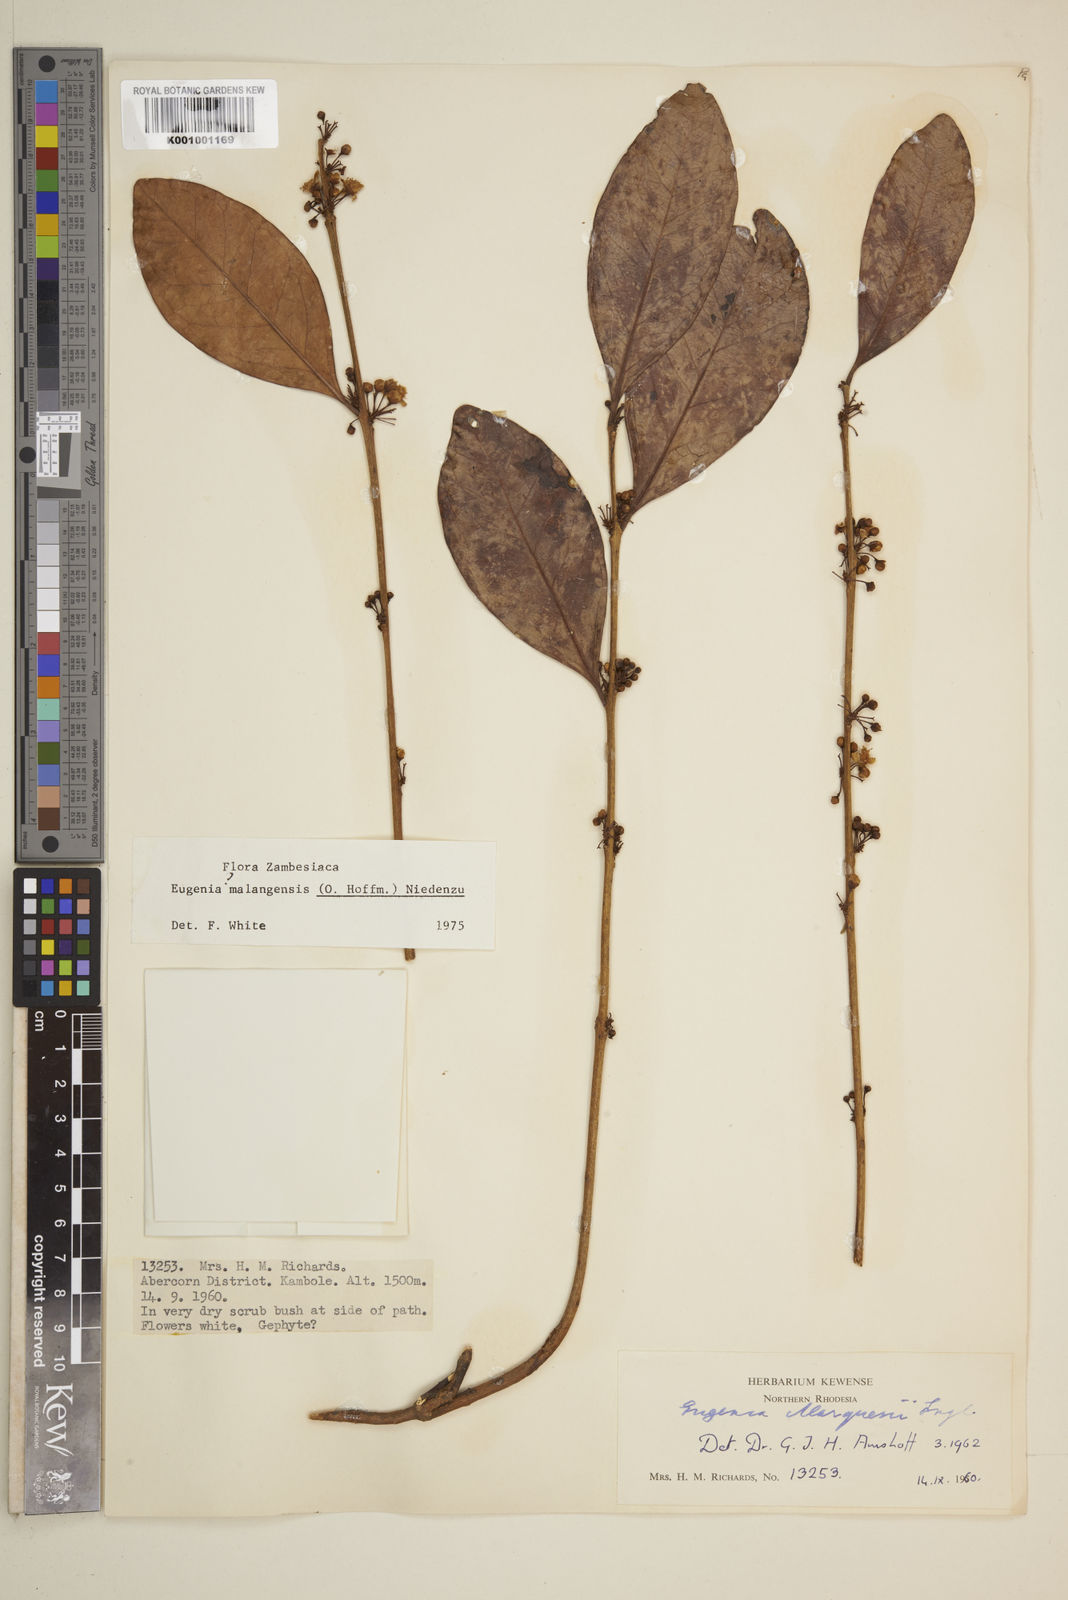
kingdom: Plantae
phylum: Tracheophyta
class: Magnoliopsida
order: Myrtales
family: Myrtaceae
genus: Eugenia
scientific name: Eugenia malangensis
